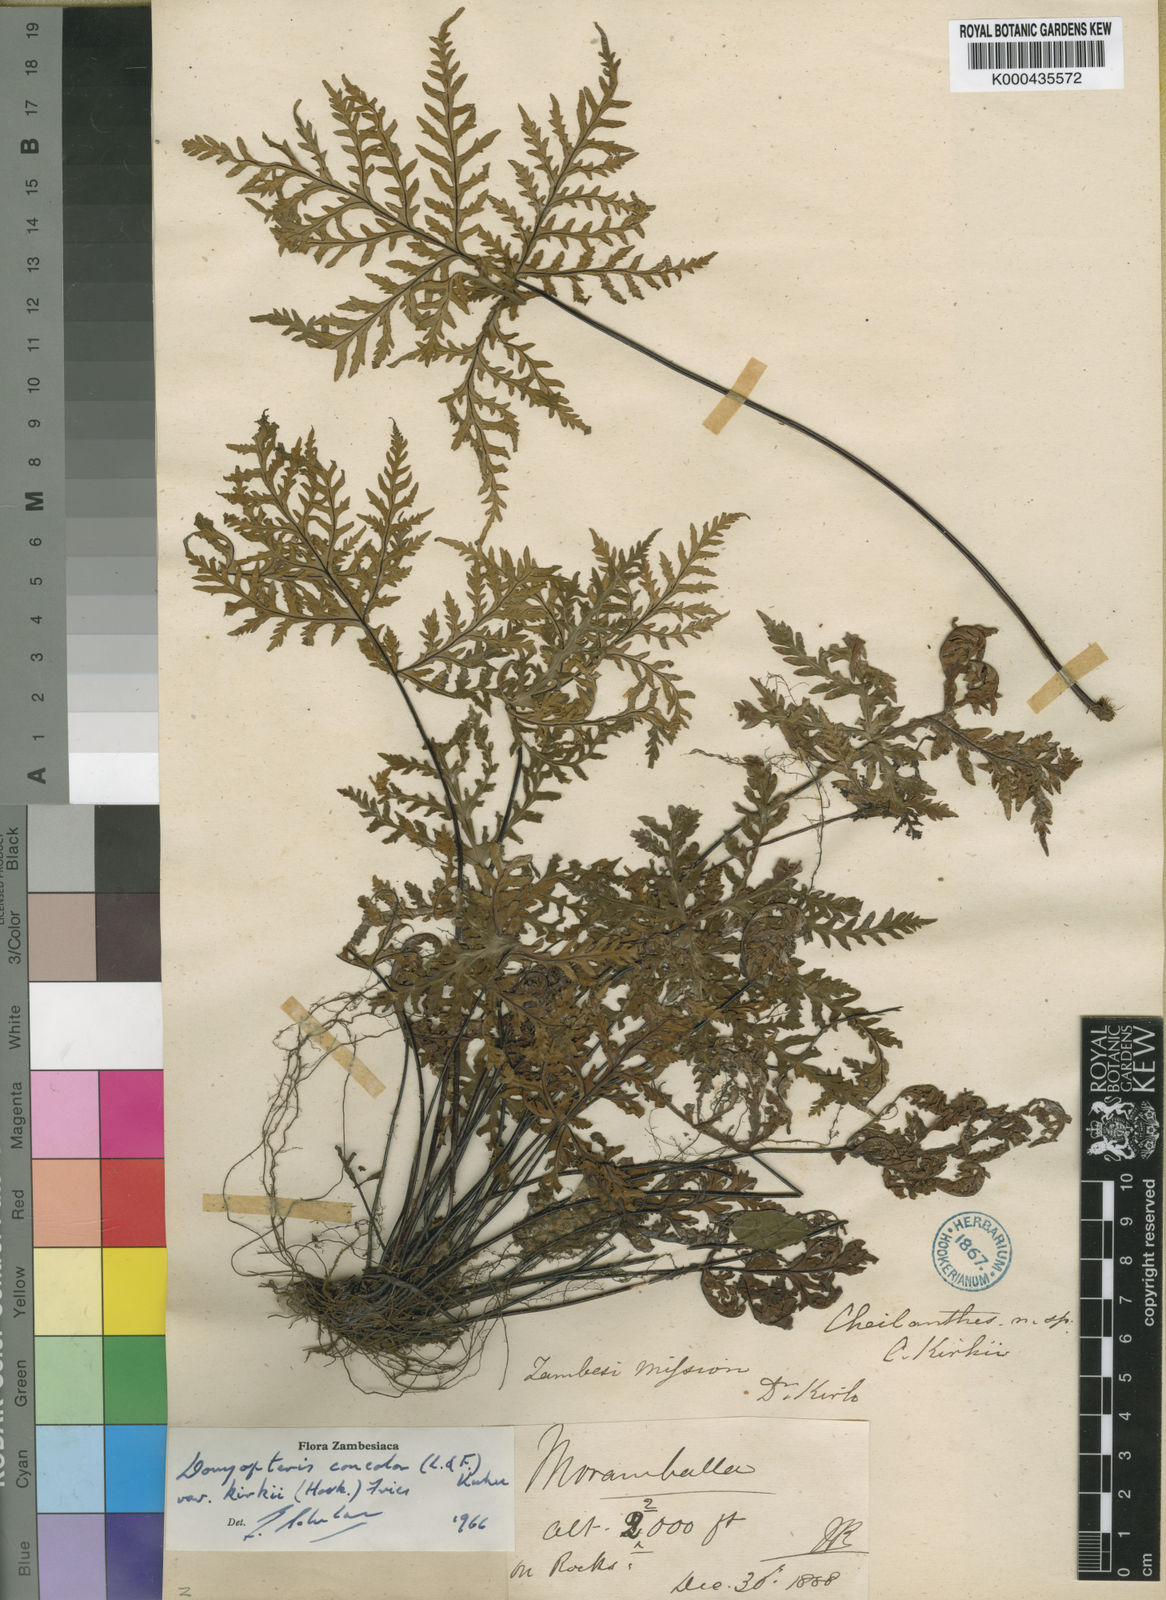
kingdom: Plantae
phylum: Tracheophyta
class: Polypodiopsida
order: Polypodiales
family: Pteridaceae
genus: Doryopteris
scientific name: Doryopteris kirkii
